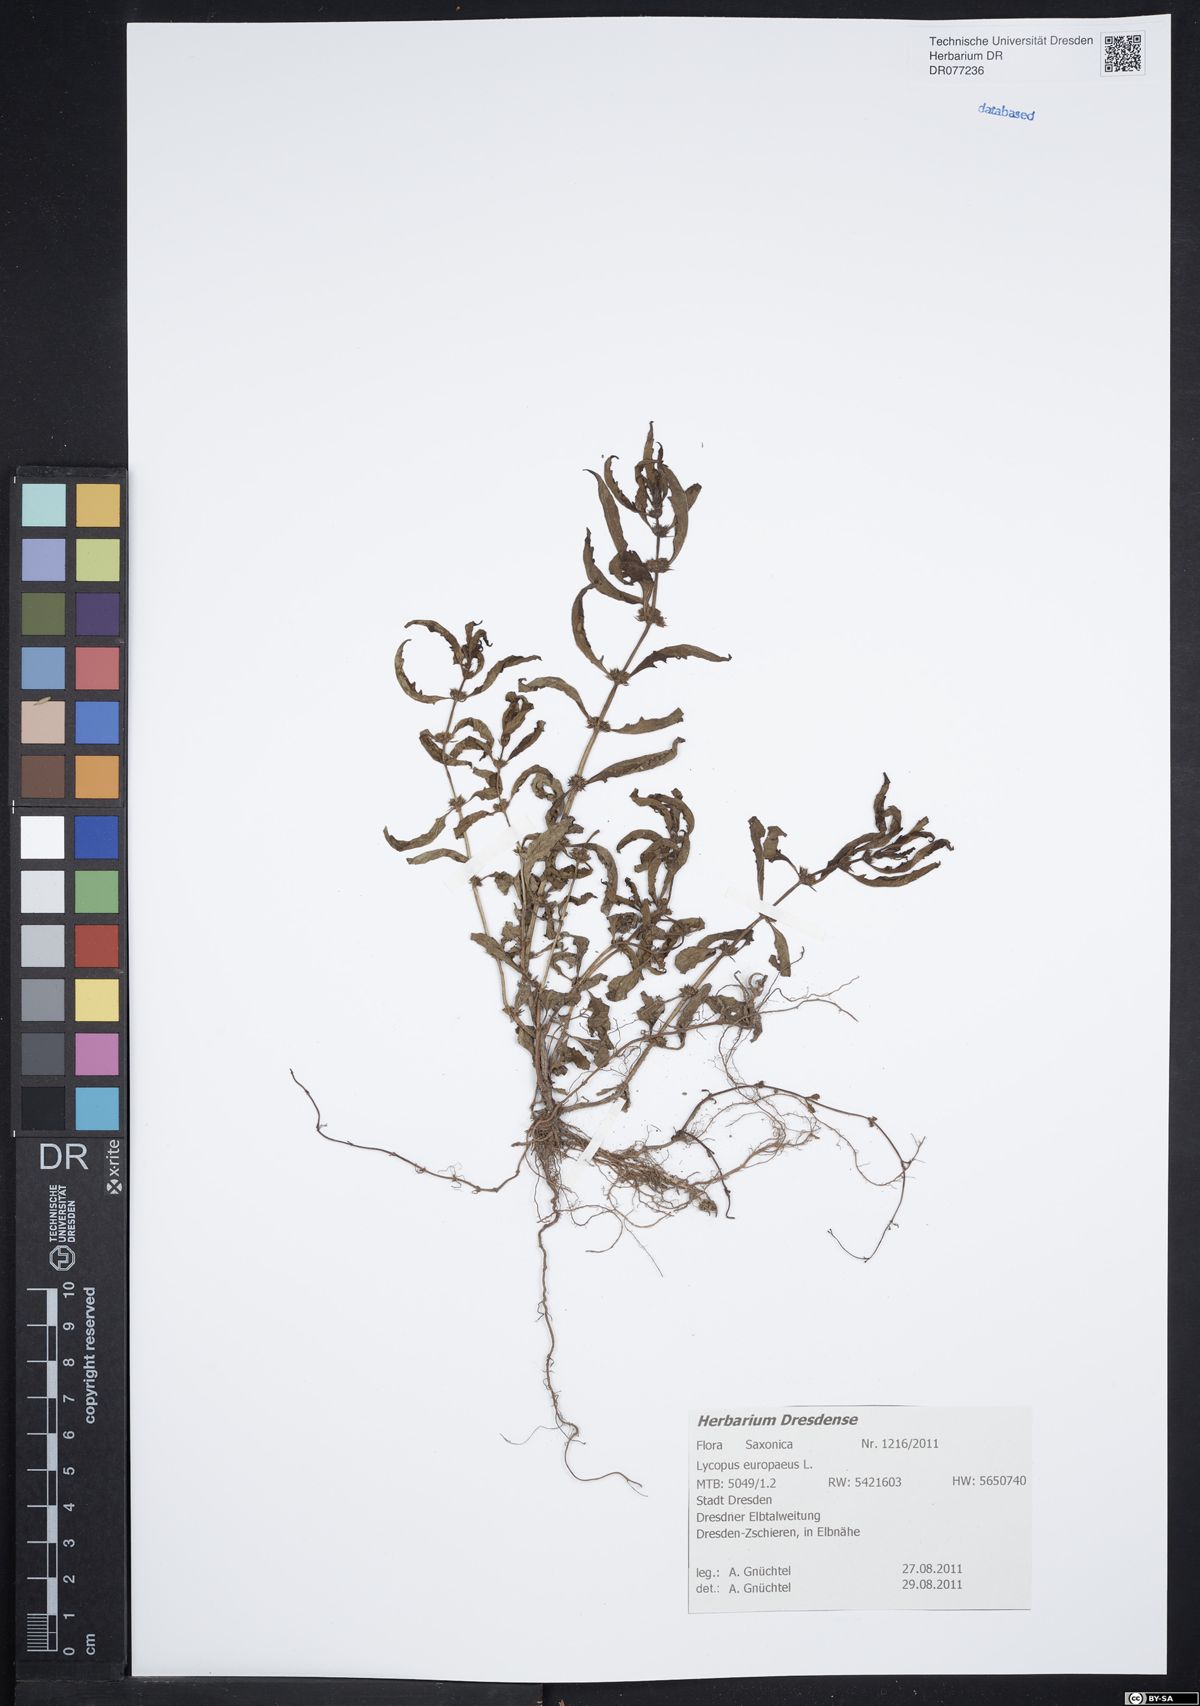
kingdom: Plantae
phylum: Tracheophyta
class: Magnoliopsida
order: Lamiales
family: Lamiaceae
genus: Lycopus
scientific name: Lycopus europaeus
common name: European bugleweed
